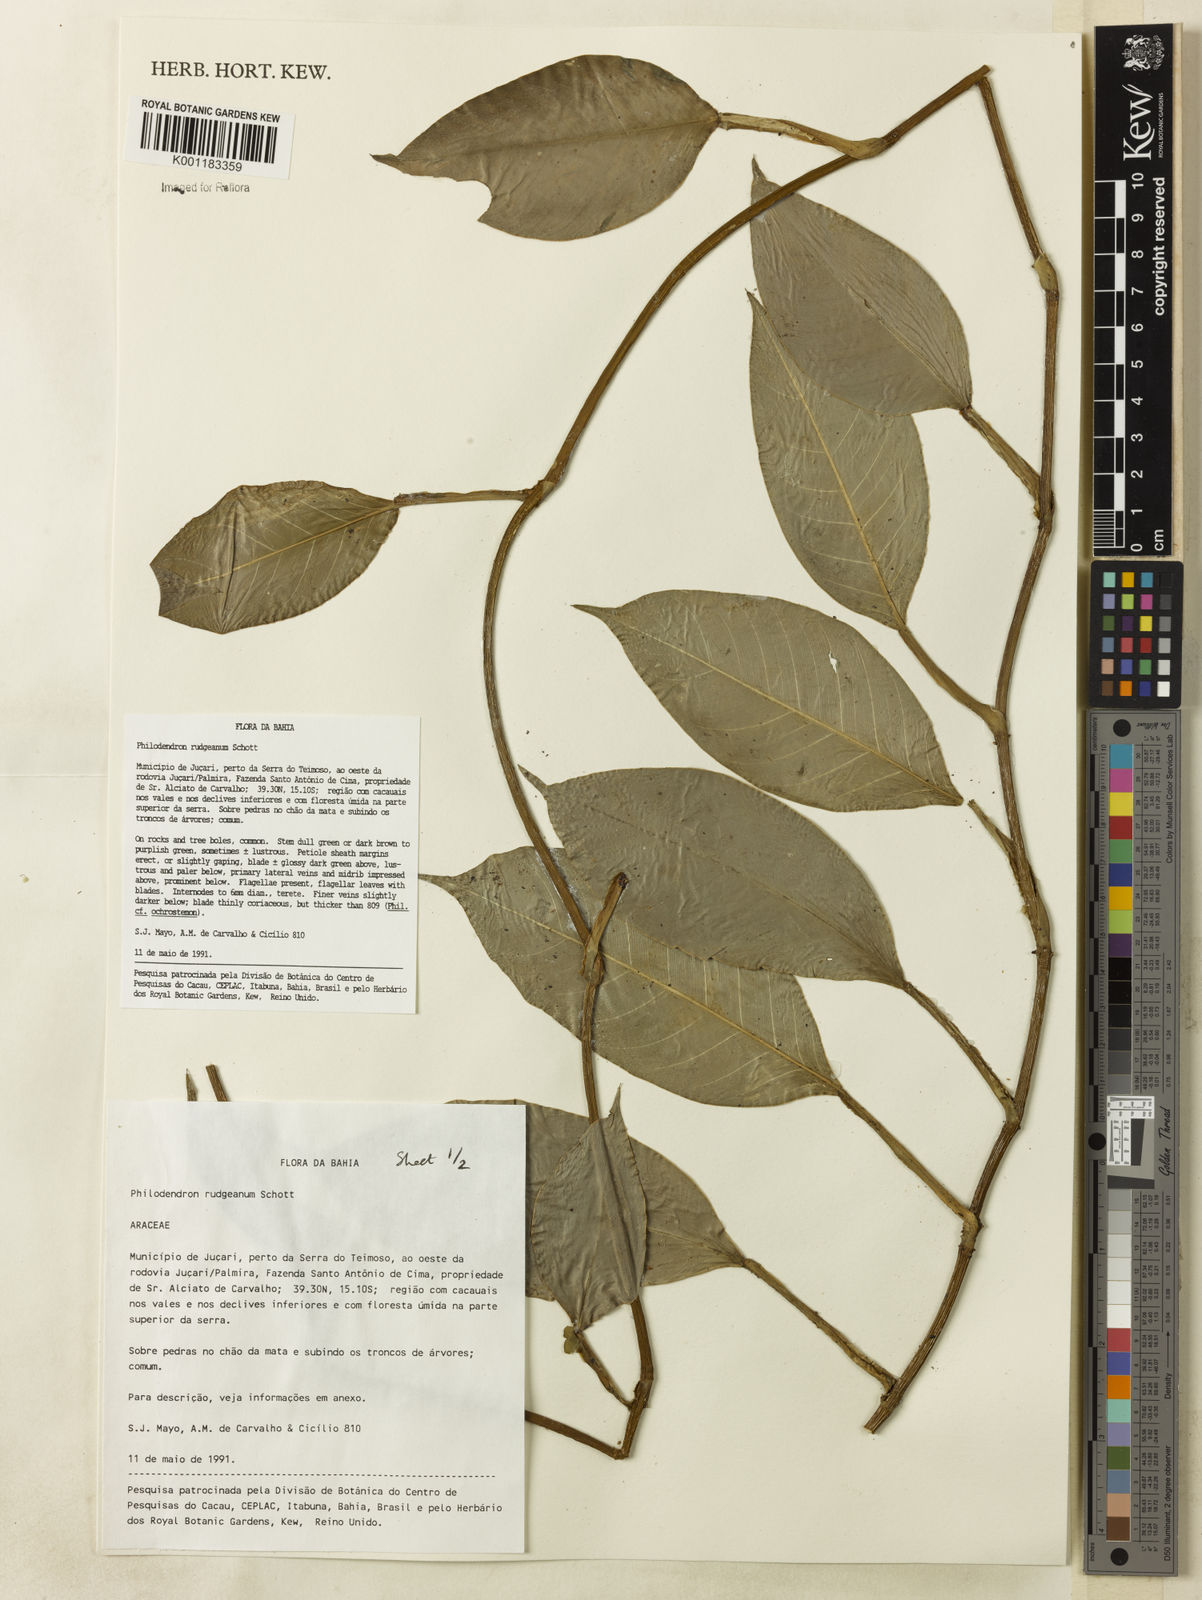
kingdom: Plantae
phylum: Tracheophyta
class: Liliopsida
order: Alismatales
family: Araceae
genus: Philodendron
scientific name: Philodendron rudgeanum
